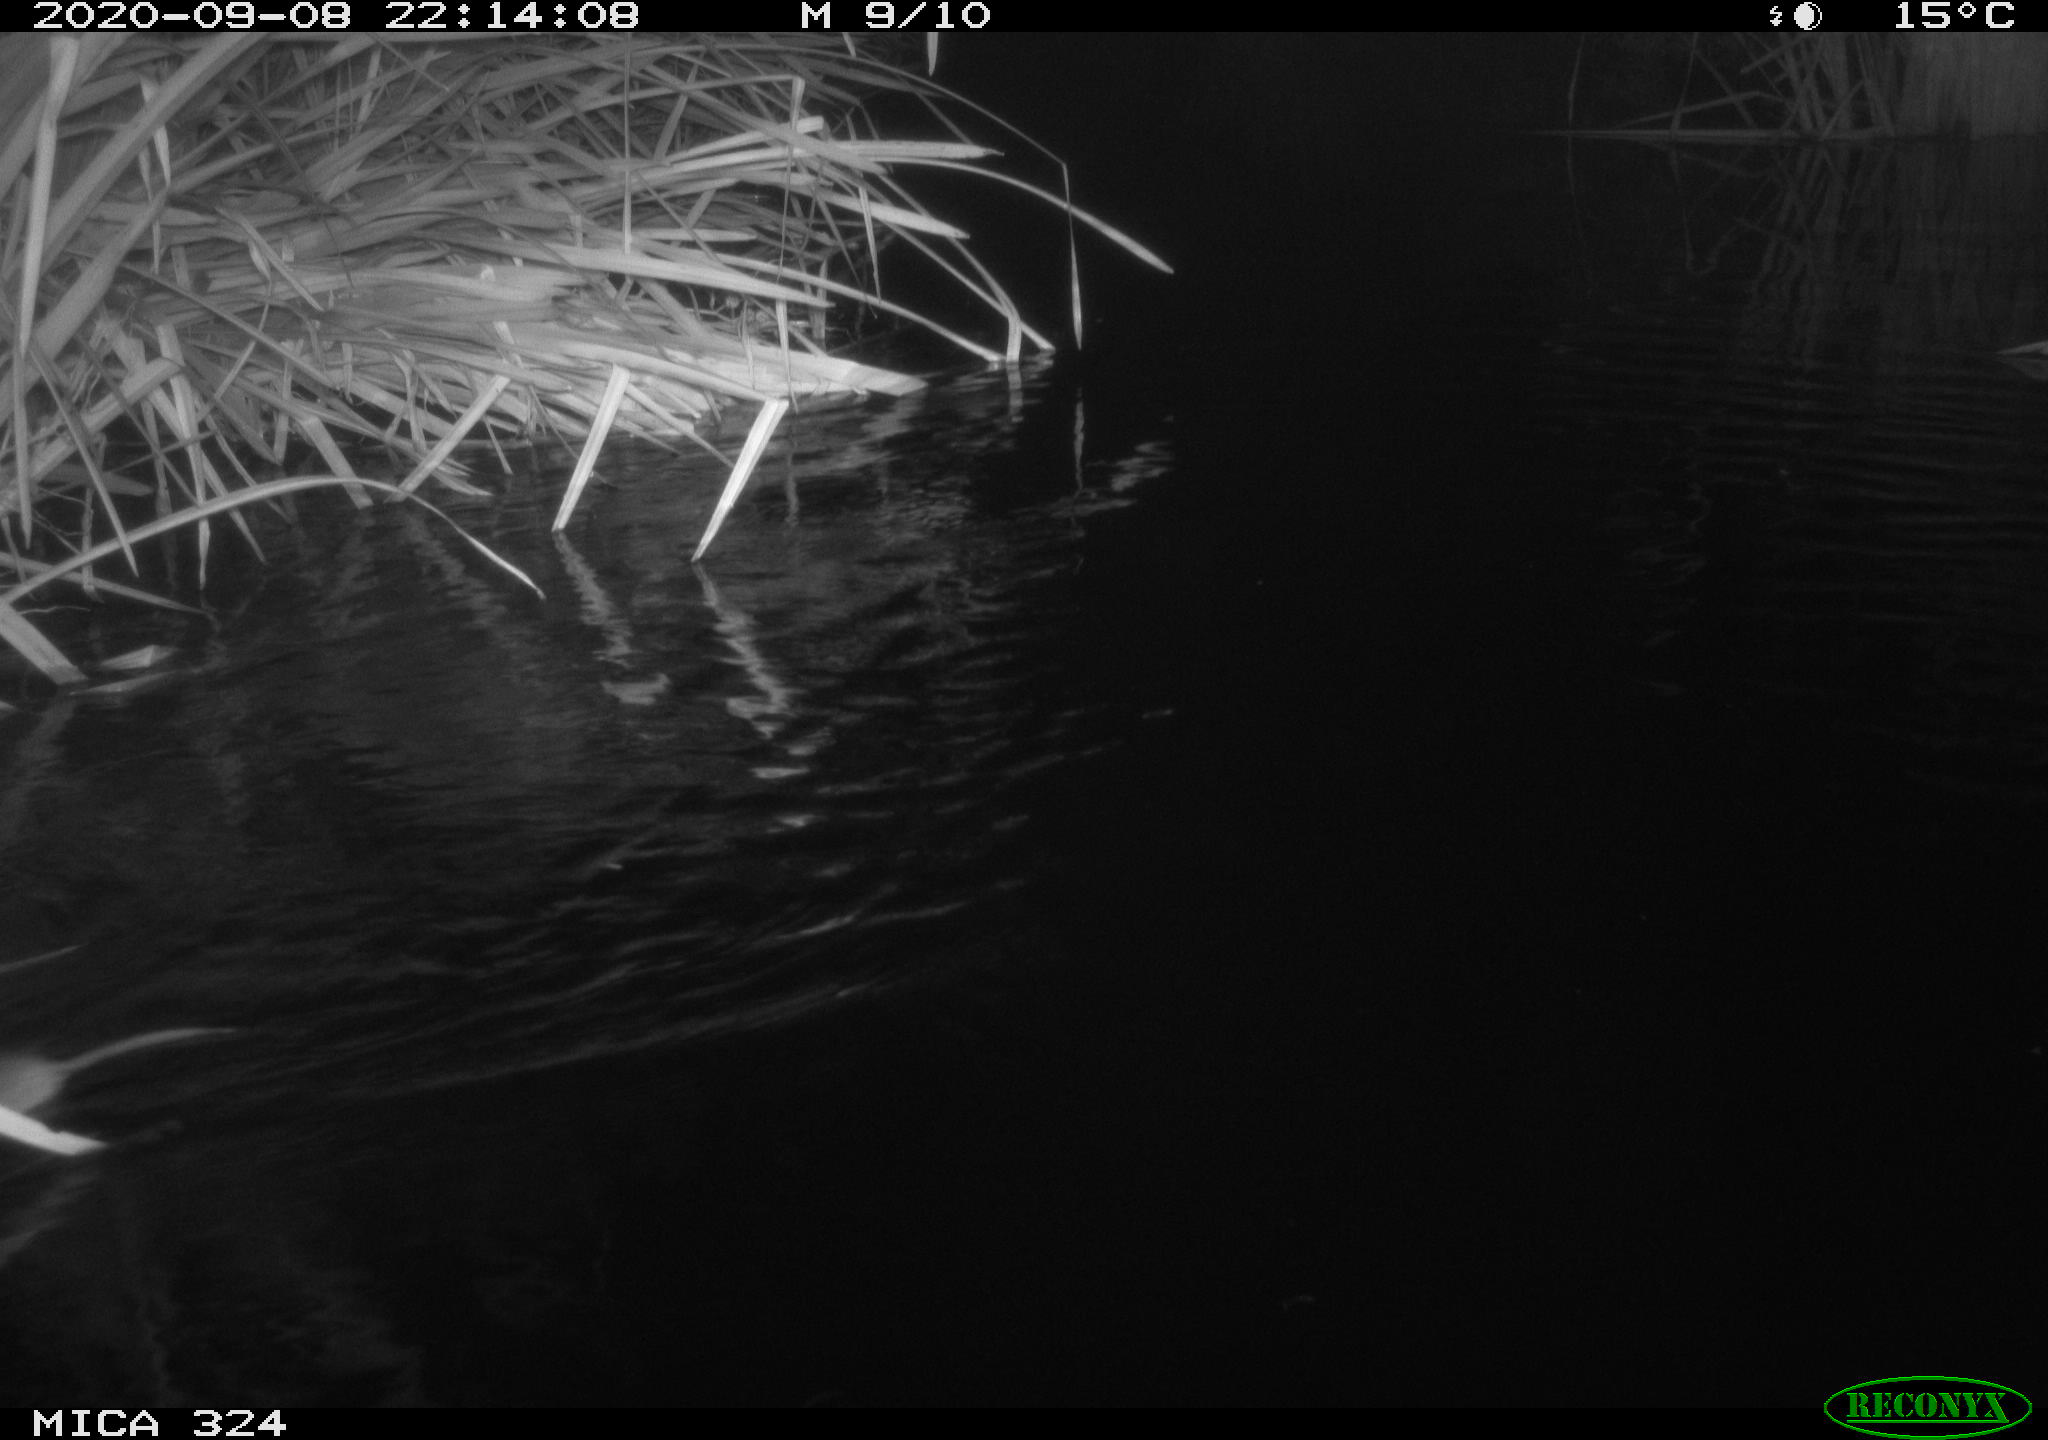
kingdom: Animalia
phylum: Chordata
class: Mammalia
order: Rodentia
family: Cricetidae
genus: Ondatra
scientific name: Ondatra zibethicus
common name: Muskrat
